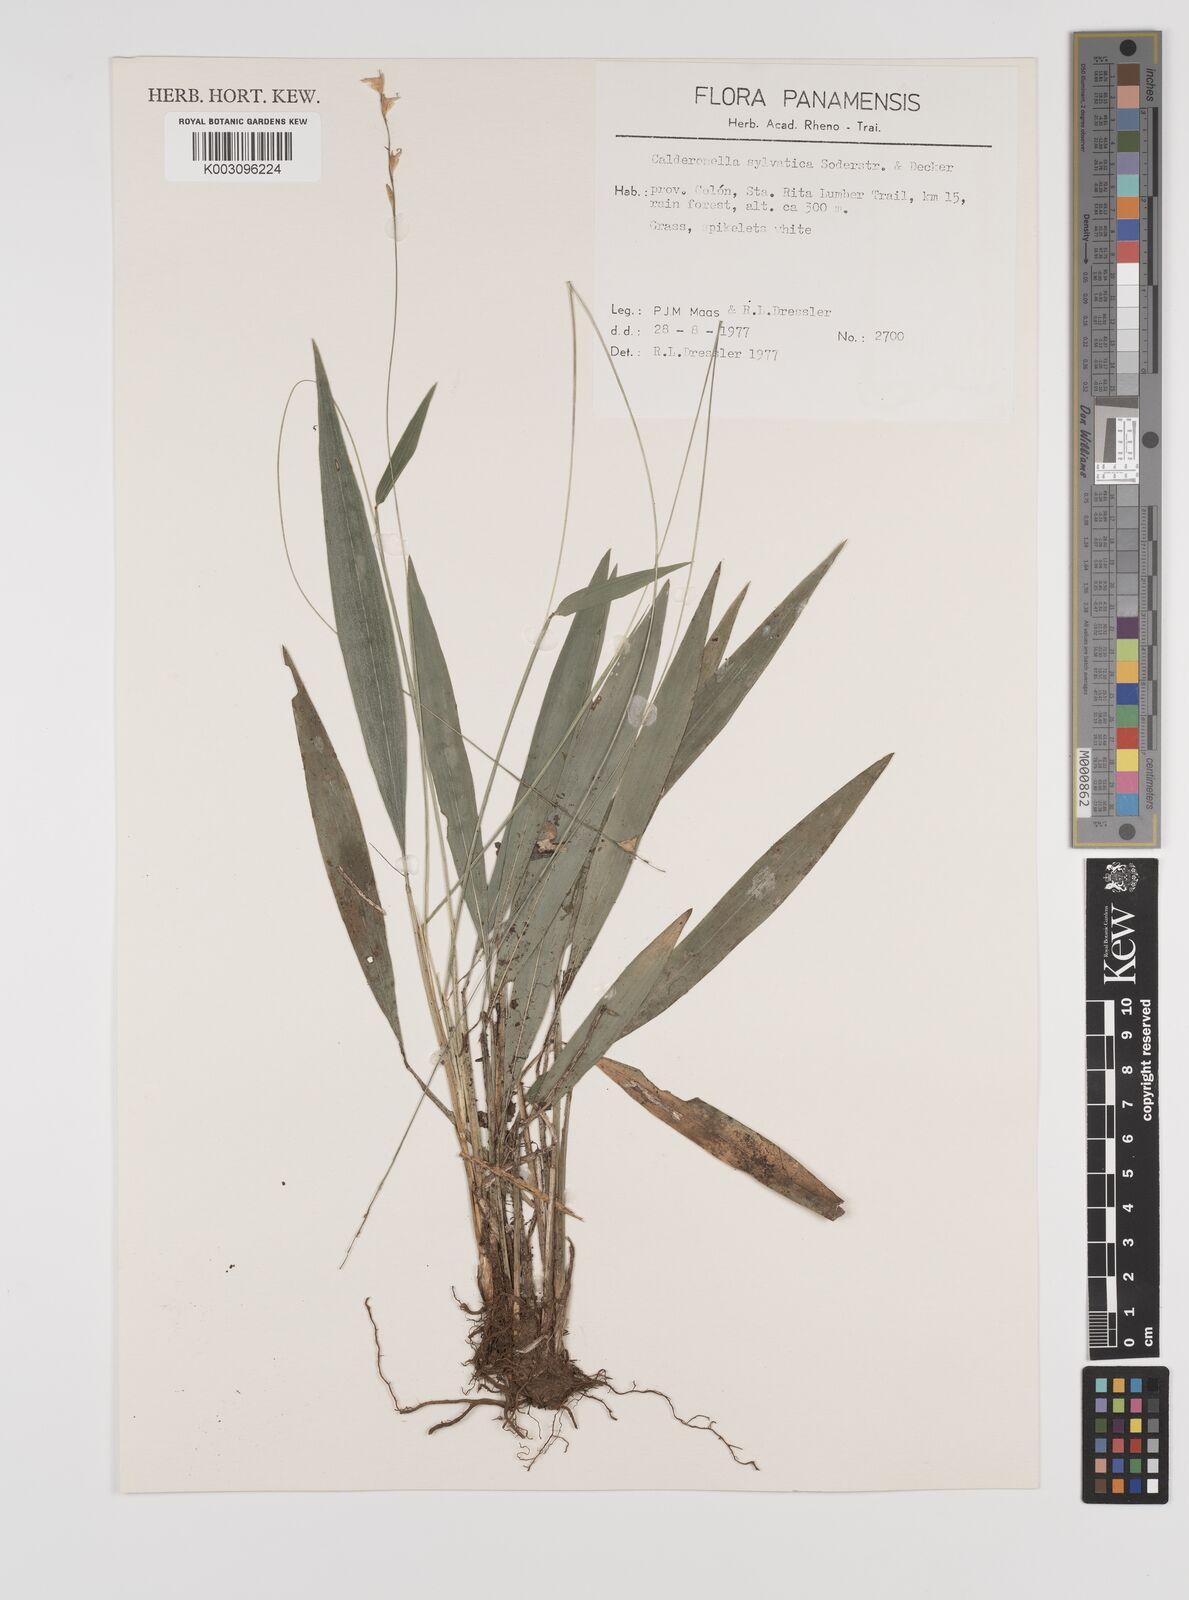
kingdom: Plantae
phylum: Tracheophyta
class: Liliopsida
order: Poales
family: Poaceae
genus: Zeugites
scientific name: Zeugites sylvaticus
